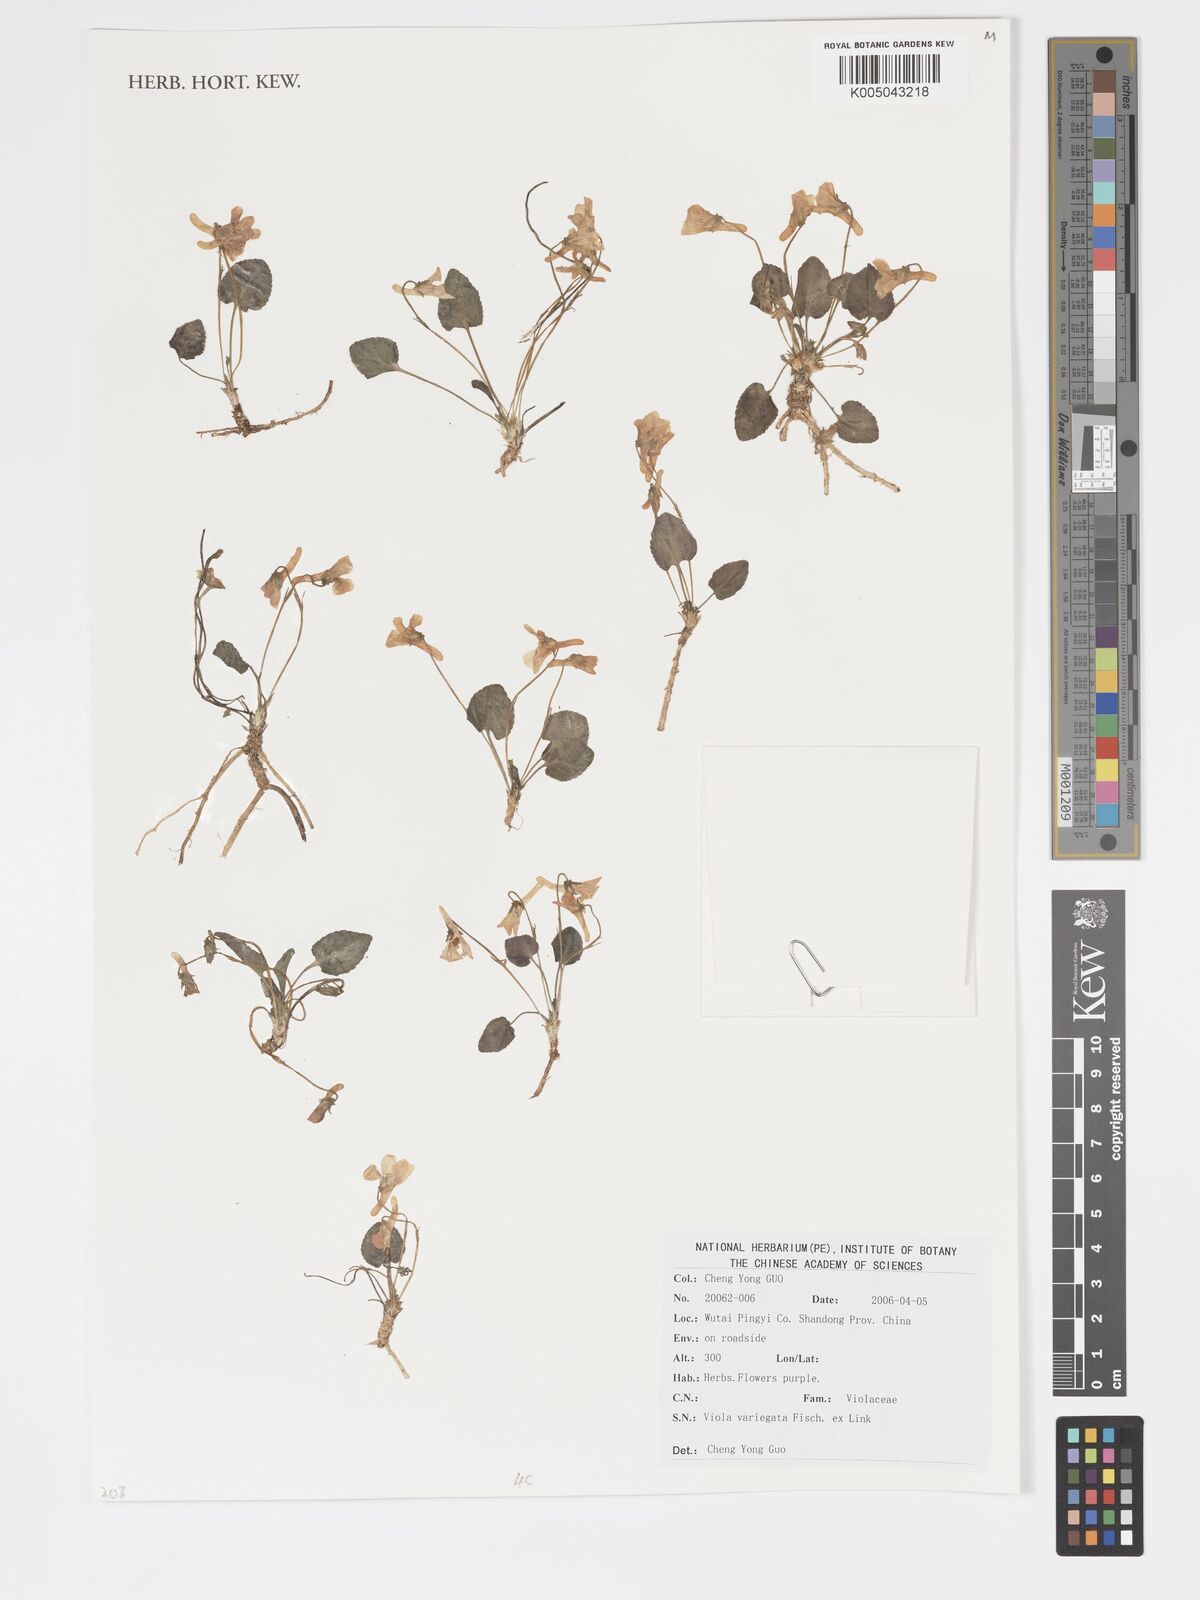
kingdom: Plantae
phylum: Tracheophyta
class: Magnoliopsida
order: Malpighiales
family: Violaceae
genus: Viola
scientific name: Viola vaginata
